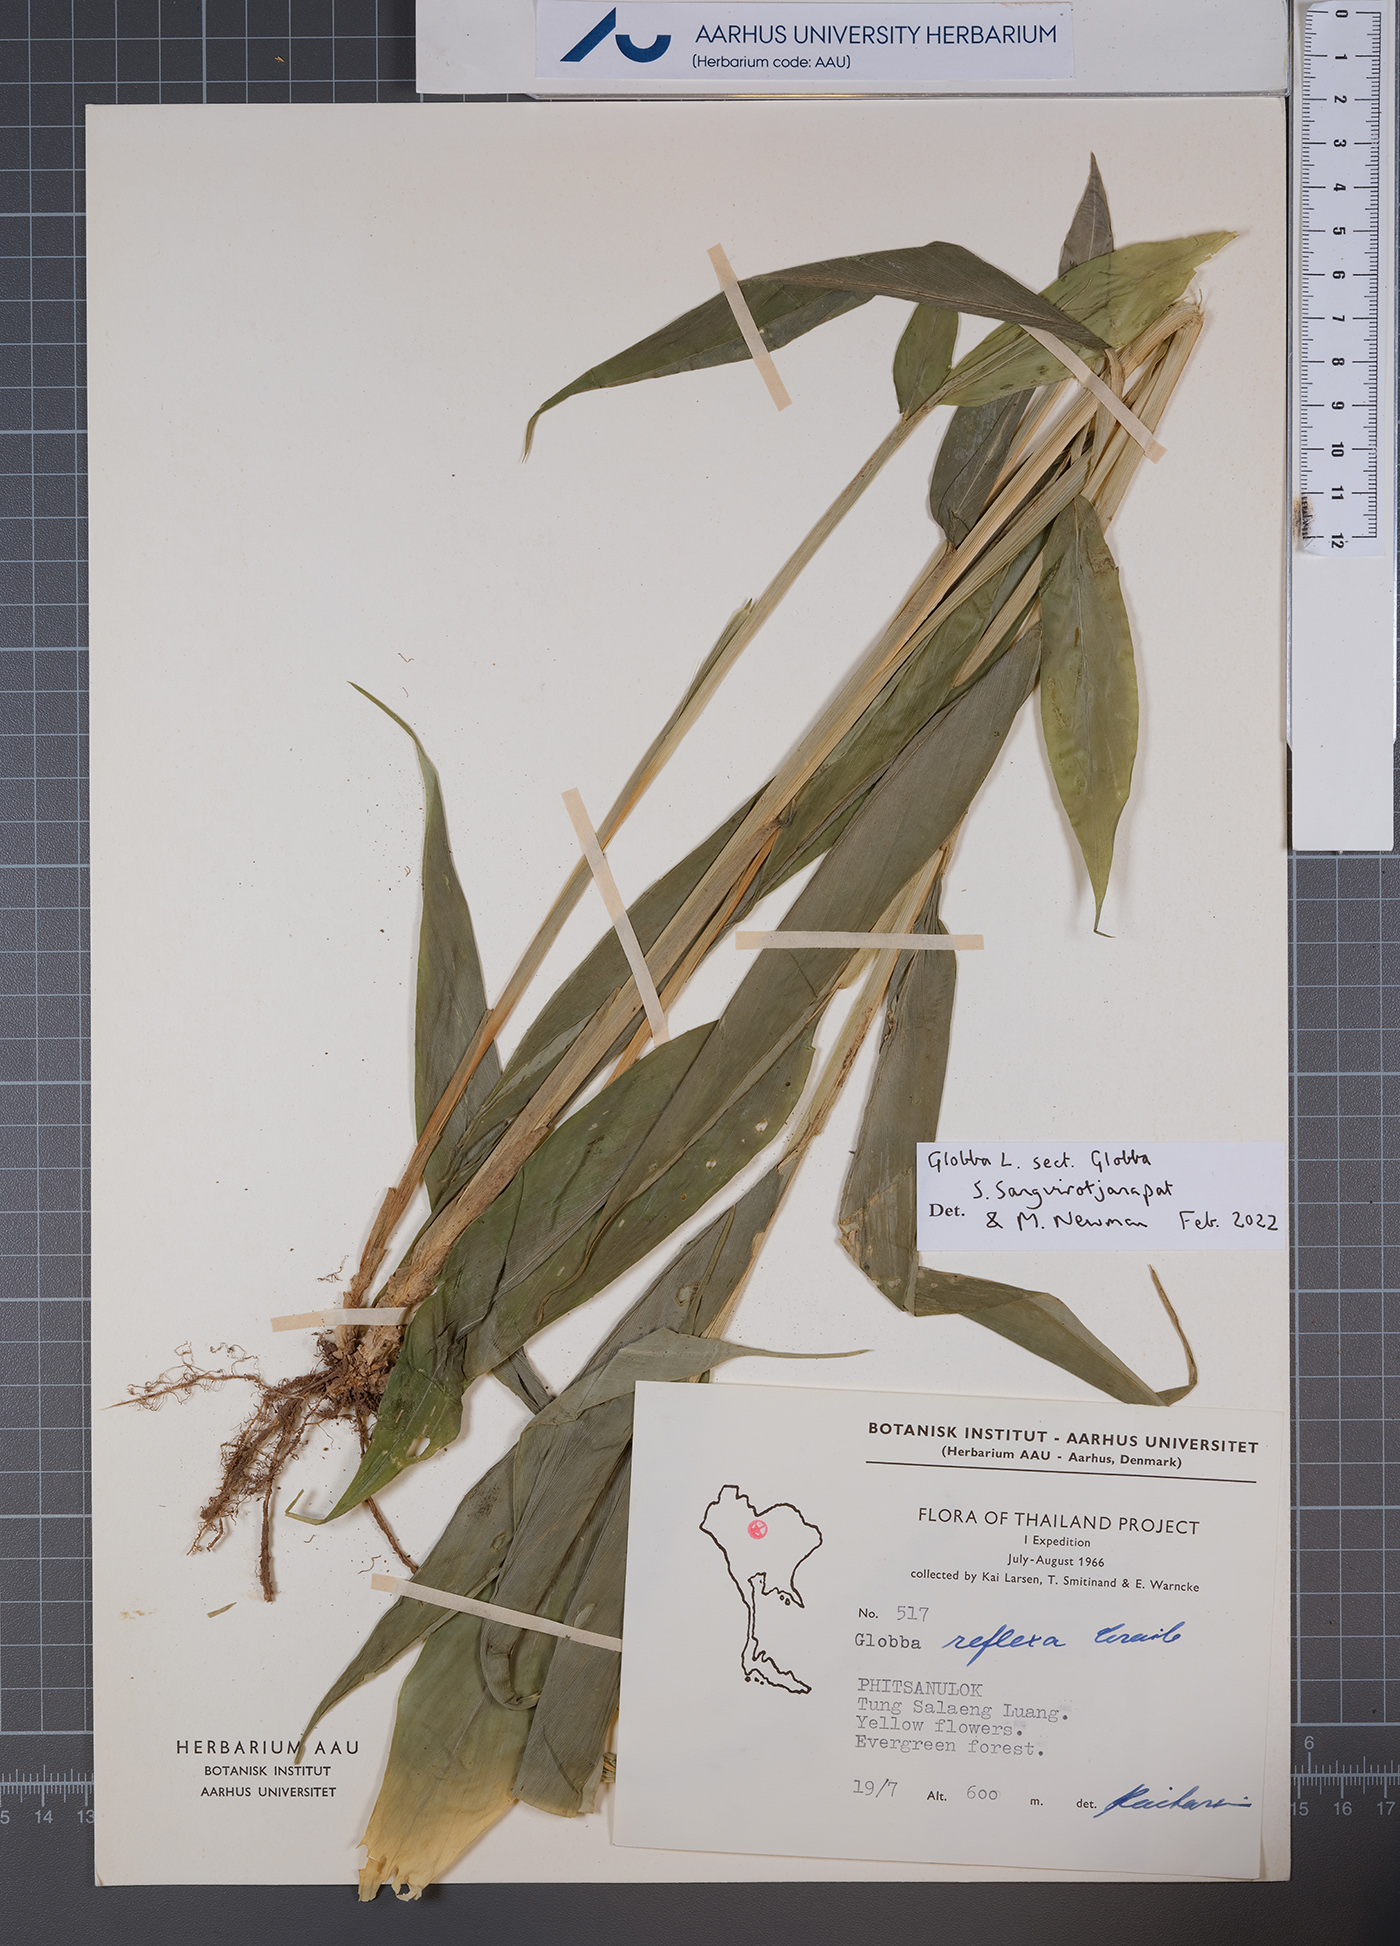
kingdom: Plantae
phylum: Tracheophyta
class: Liliopsida
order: Zingiberales
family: Zingiberaceae
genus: Globba
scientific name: Globba
